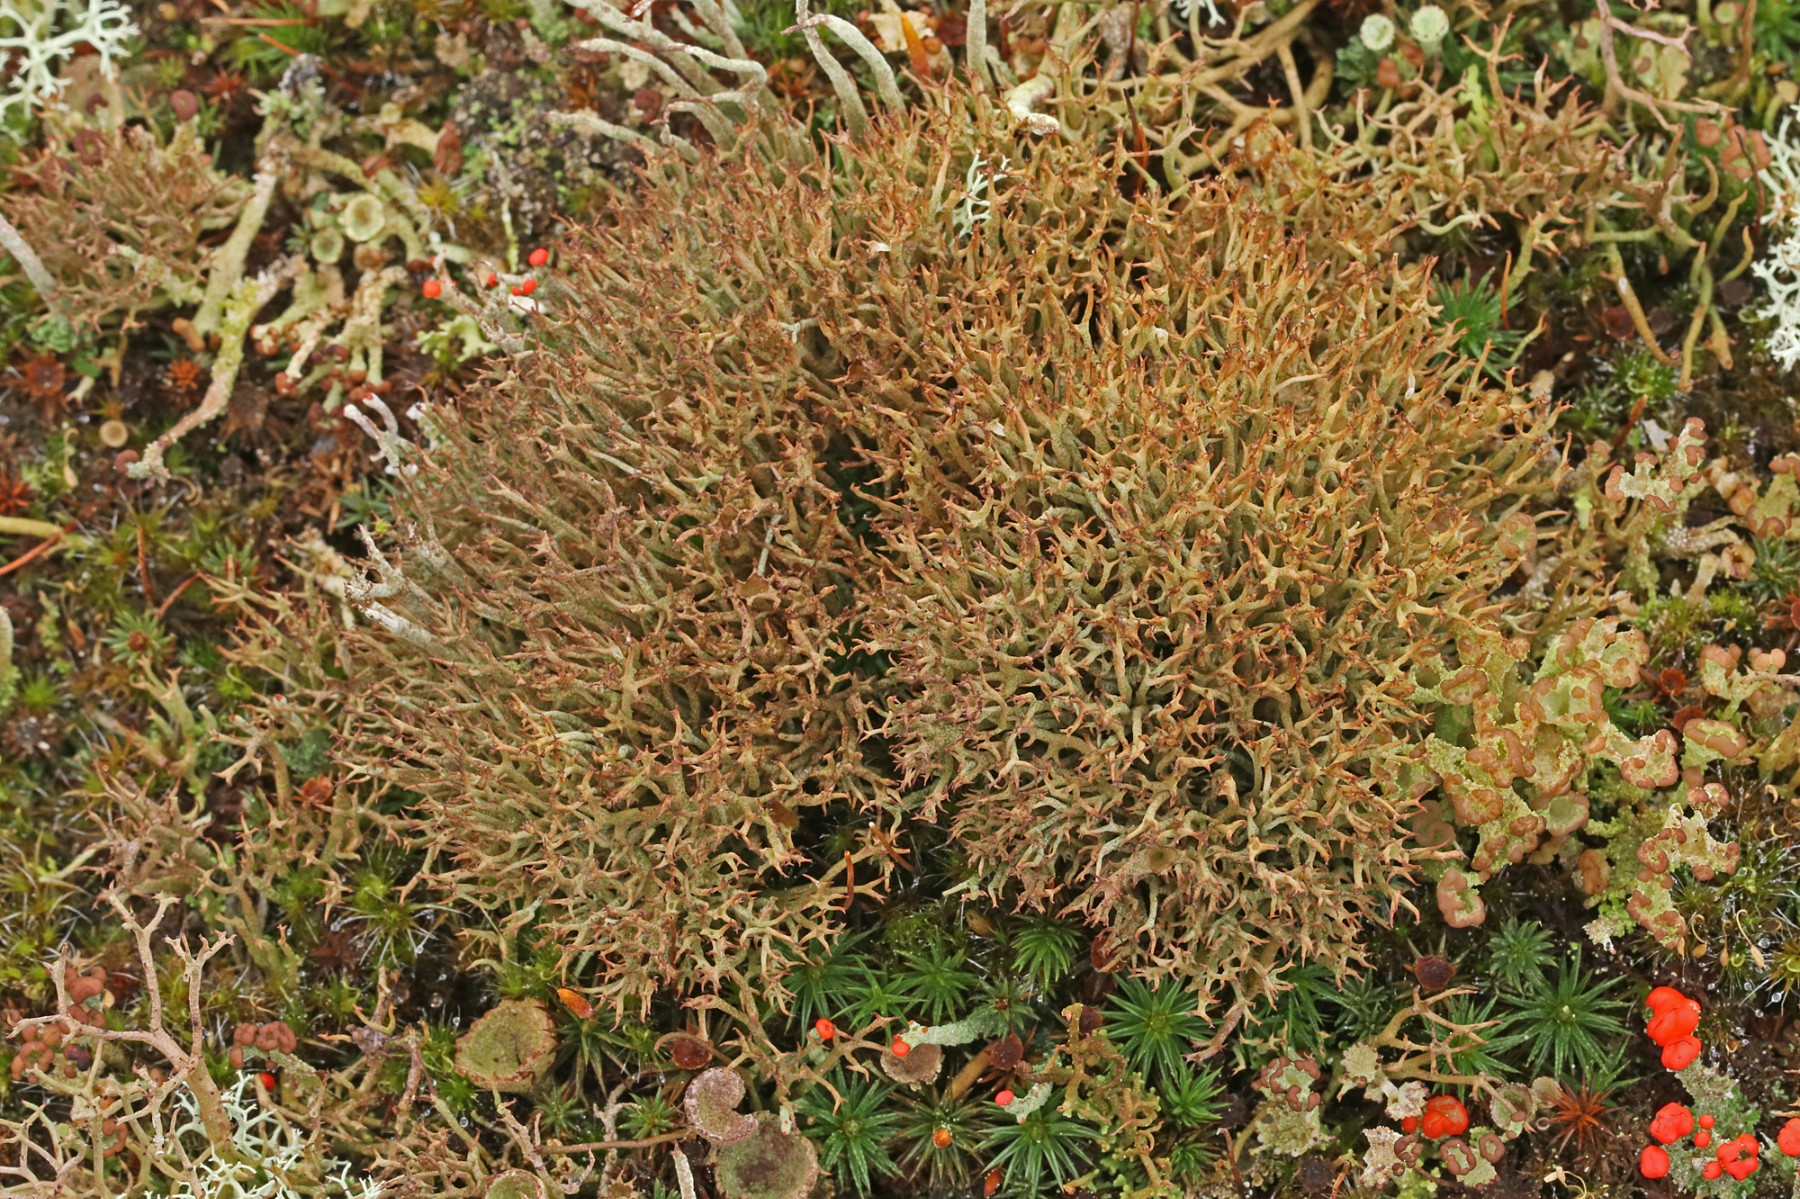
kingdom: Fungi
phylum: Ascomycota
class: Lecanoromycetes
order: Lecanorales
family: Cladoniaceae
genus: Cladonia
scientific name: Cladonia crispata
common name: takket bægerlav
